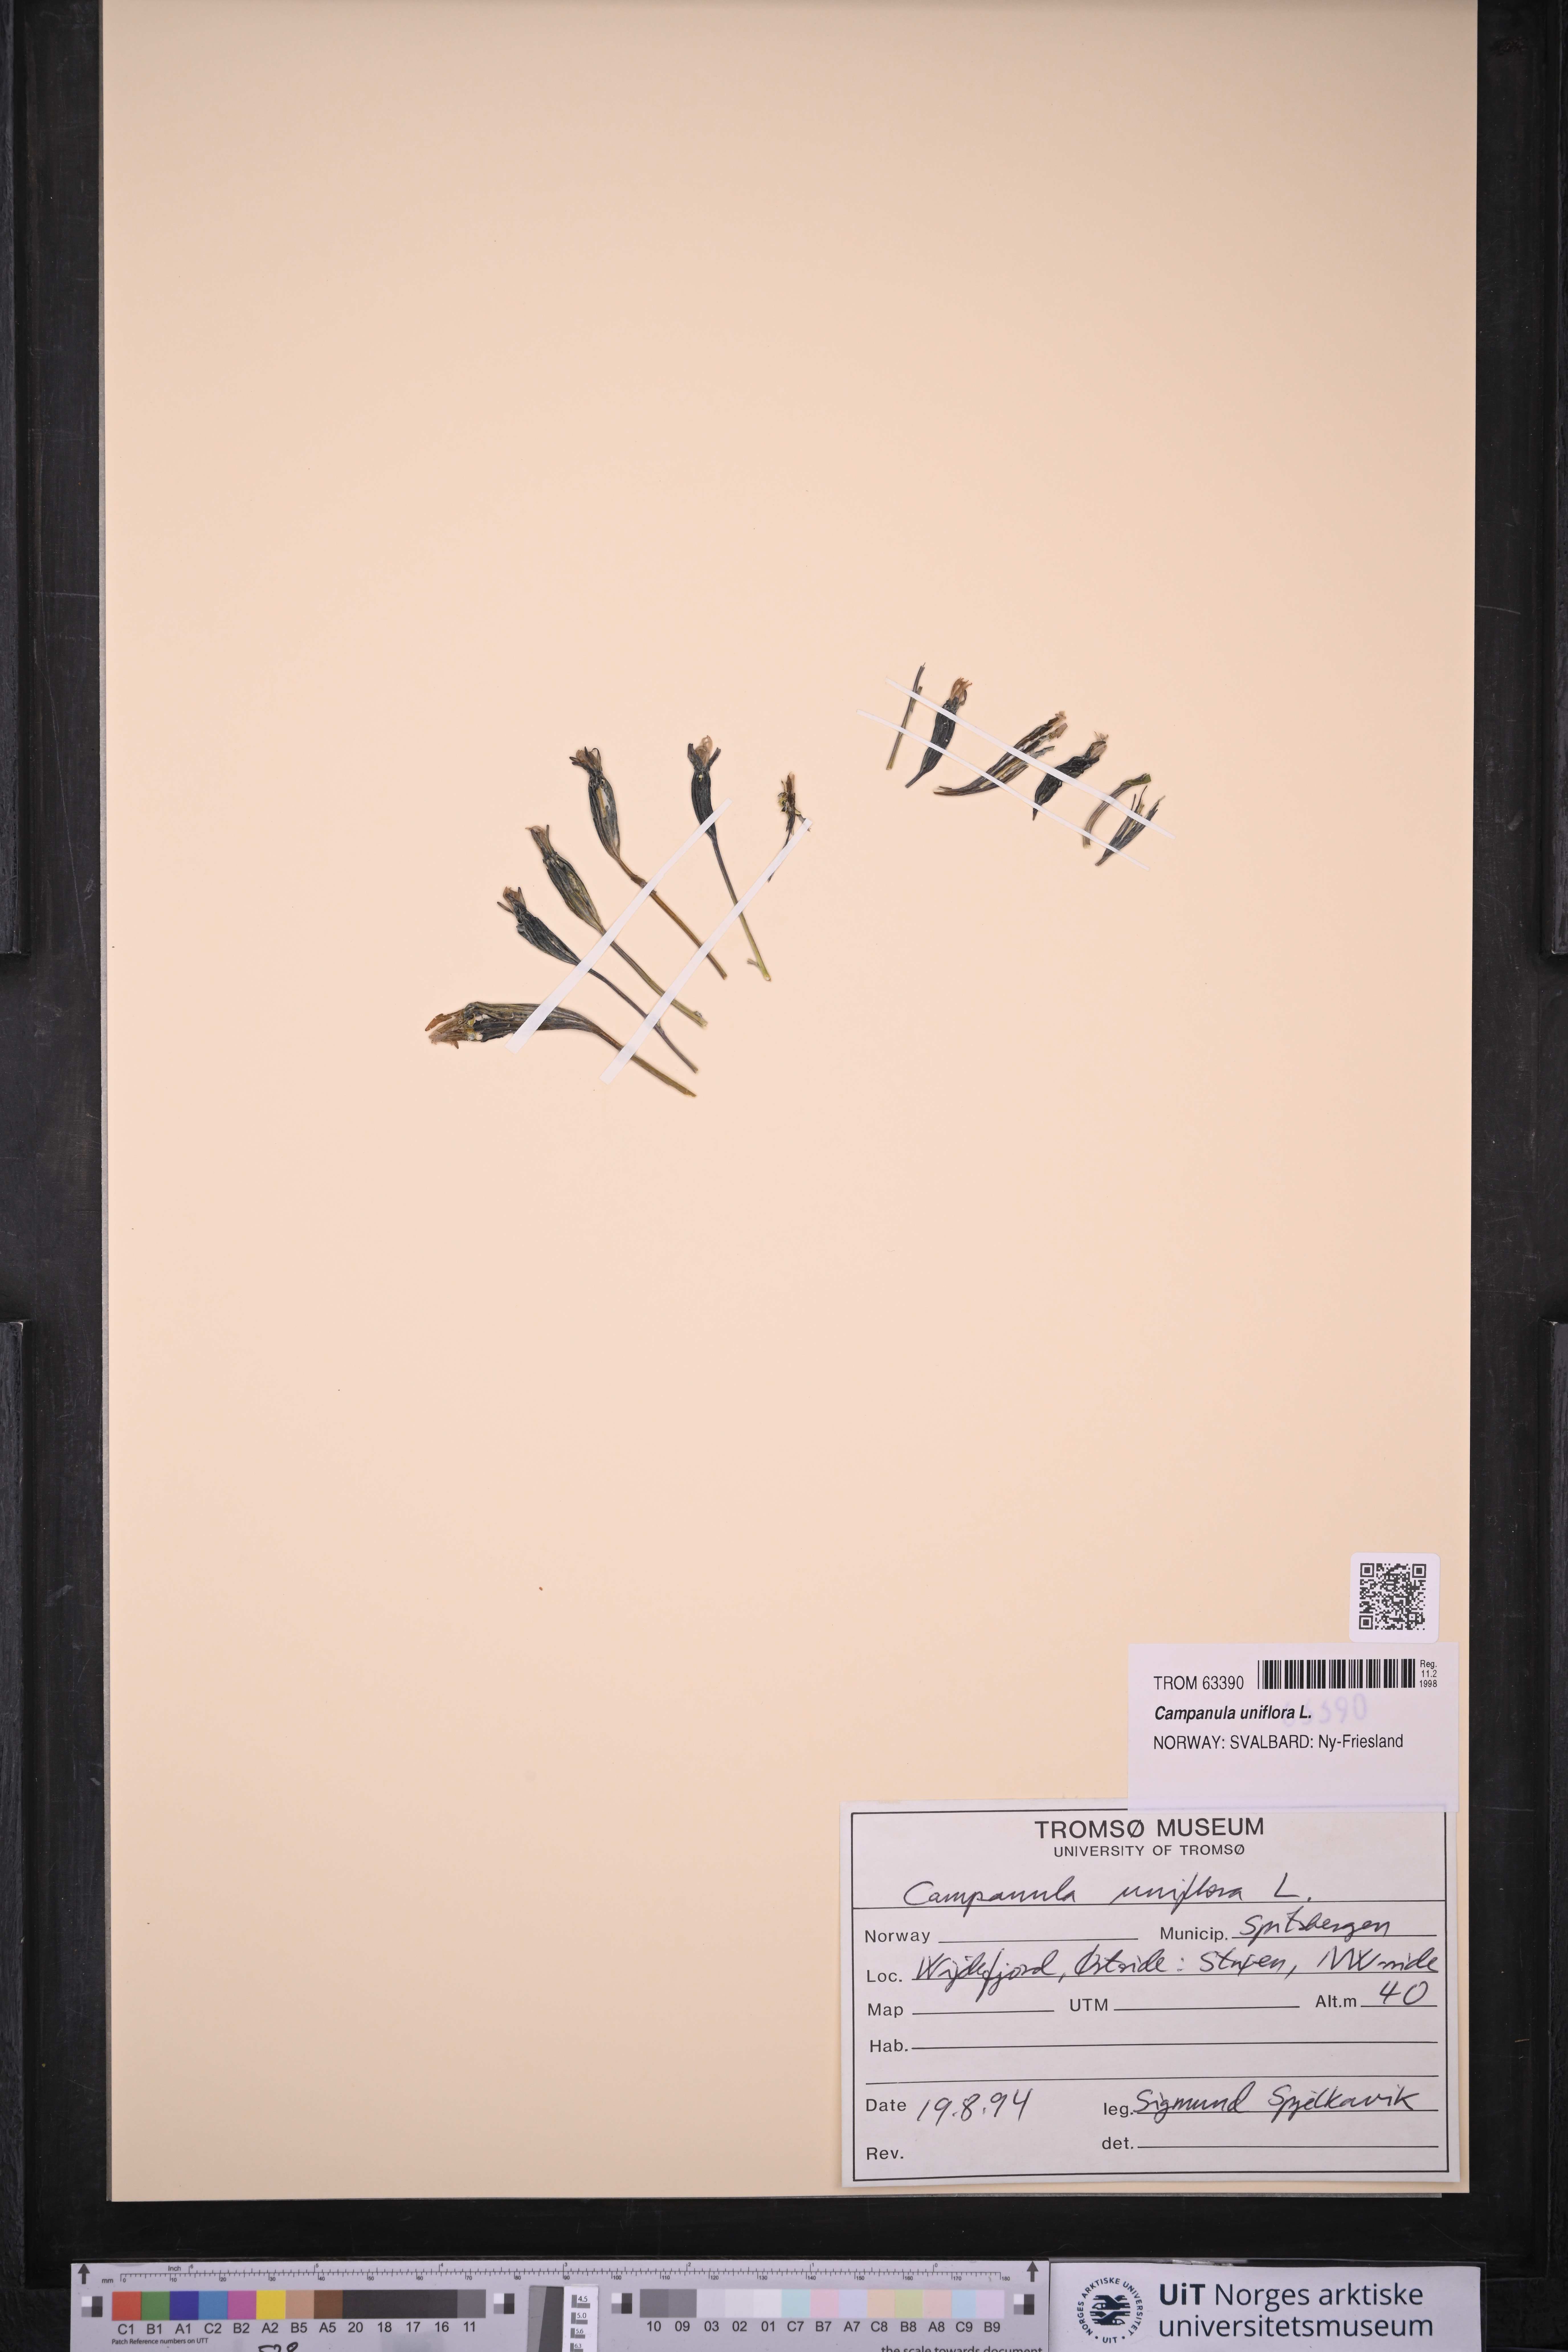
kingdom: Plantae
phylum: Tracheophyta
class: Magnoliopsida
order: Asterales
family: Campanulaceae
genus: Melanocalyx
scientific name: Melanocalyx uniflora
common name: Alpine harebell
